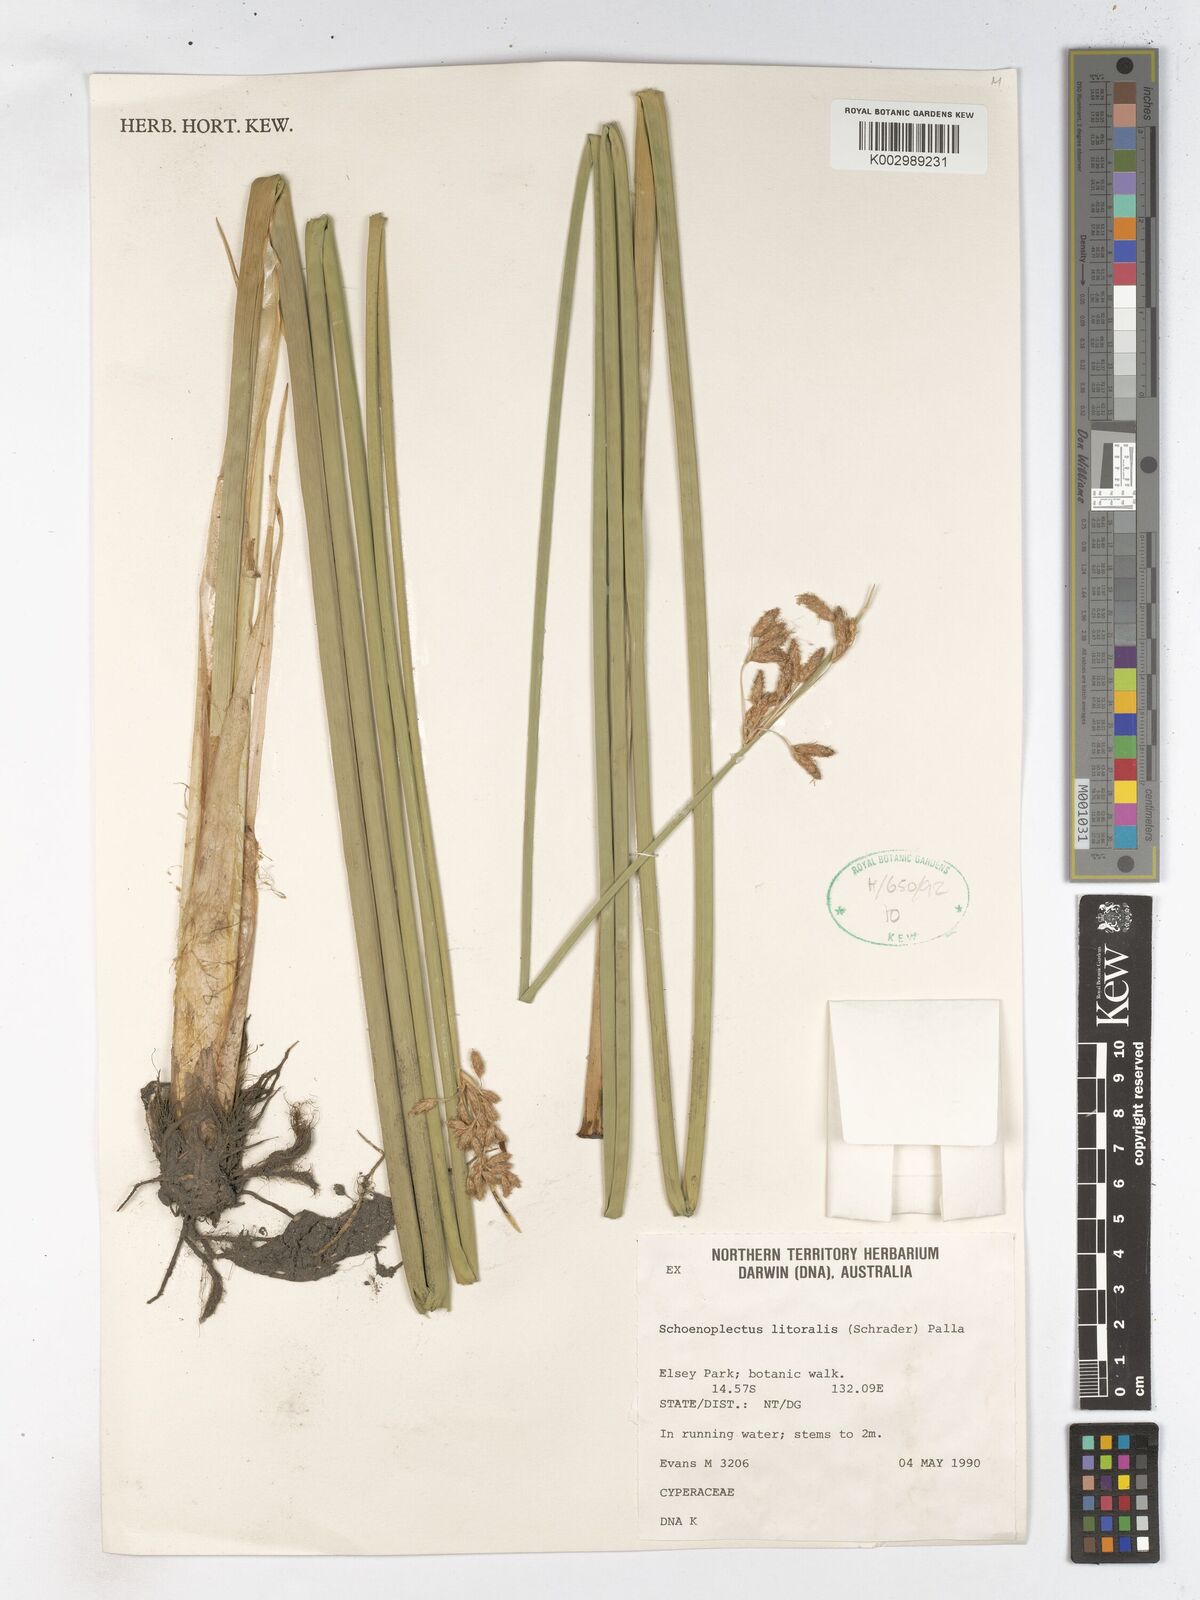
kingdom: Plantae
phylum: Tracheophyta
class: Liliopsida
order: Poales
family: Cyperaceae
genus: Schoenoplectus
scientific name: Schoenoplectus litoralis
